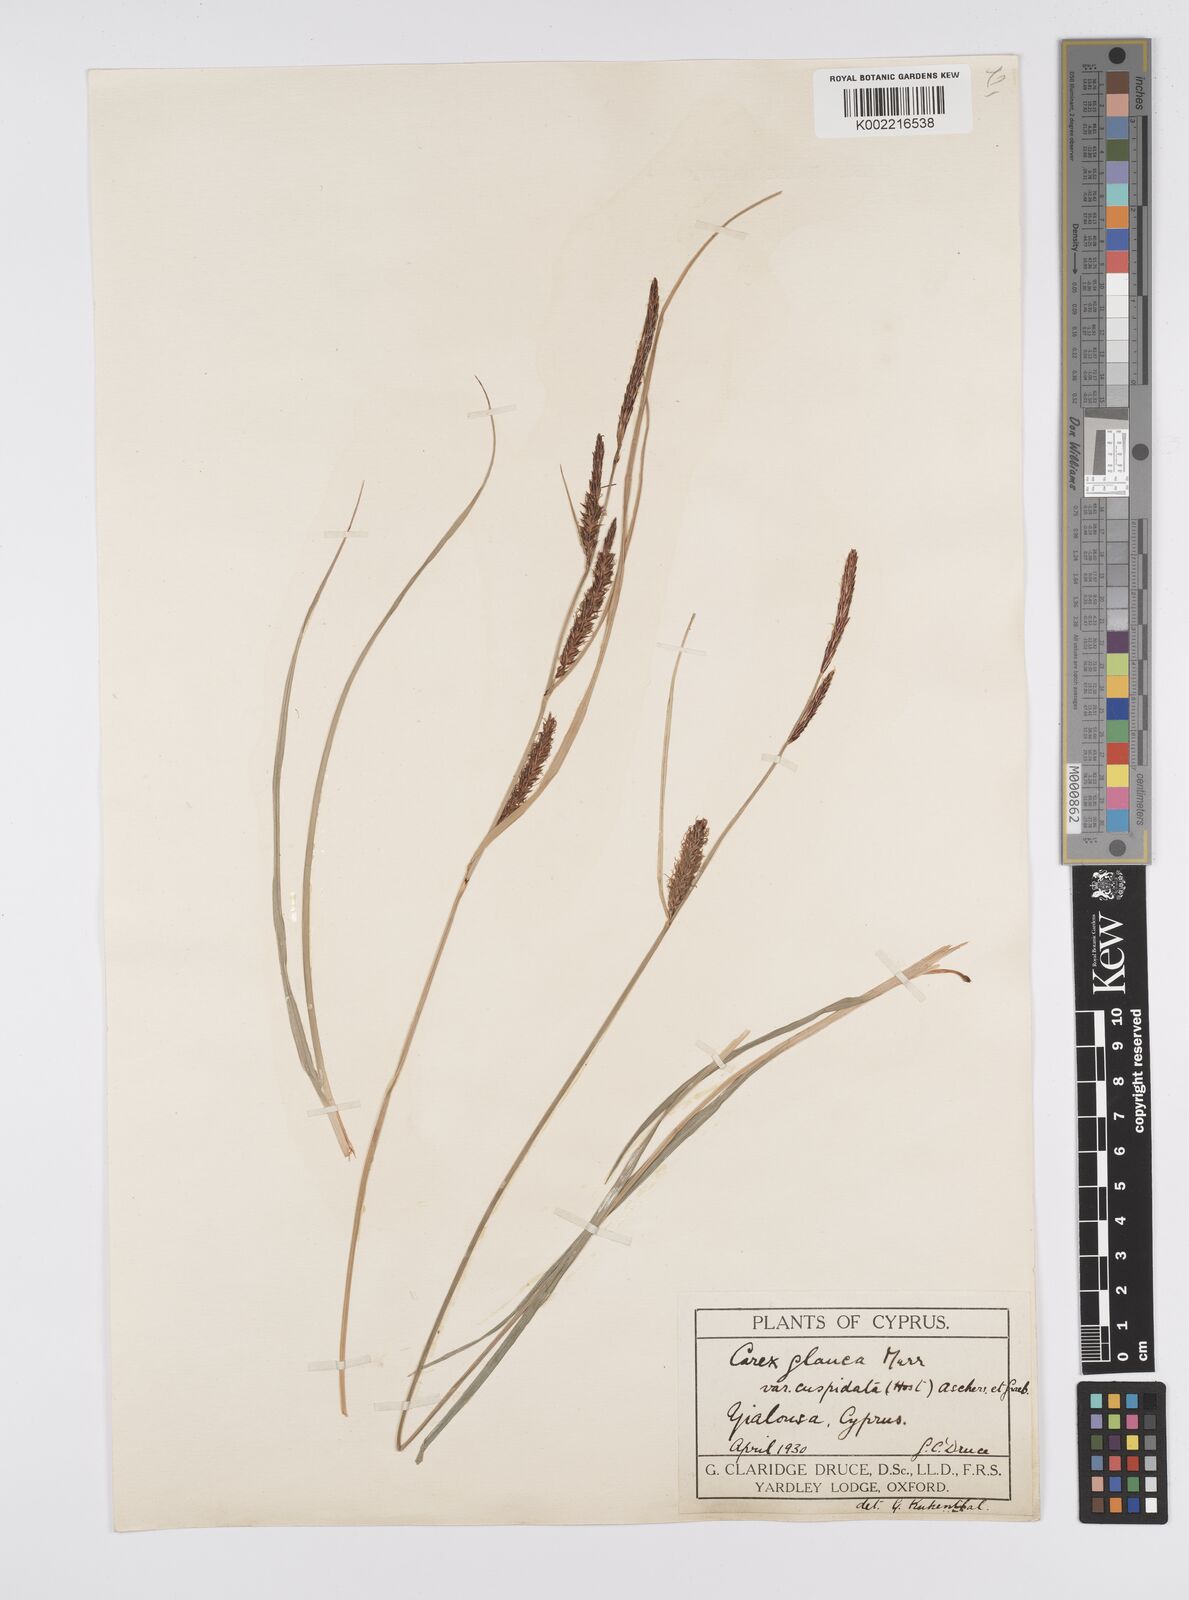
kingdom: Plantae
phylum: Tracheophyta
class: Liliopsida
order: Poales
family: Cyperaceae
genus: Carex
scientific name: Carex flacca
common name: Glaucous sedge
